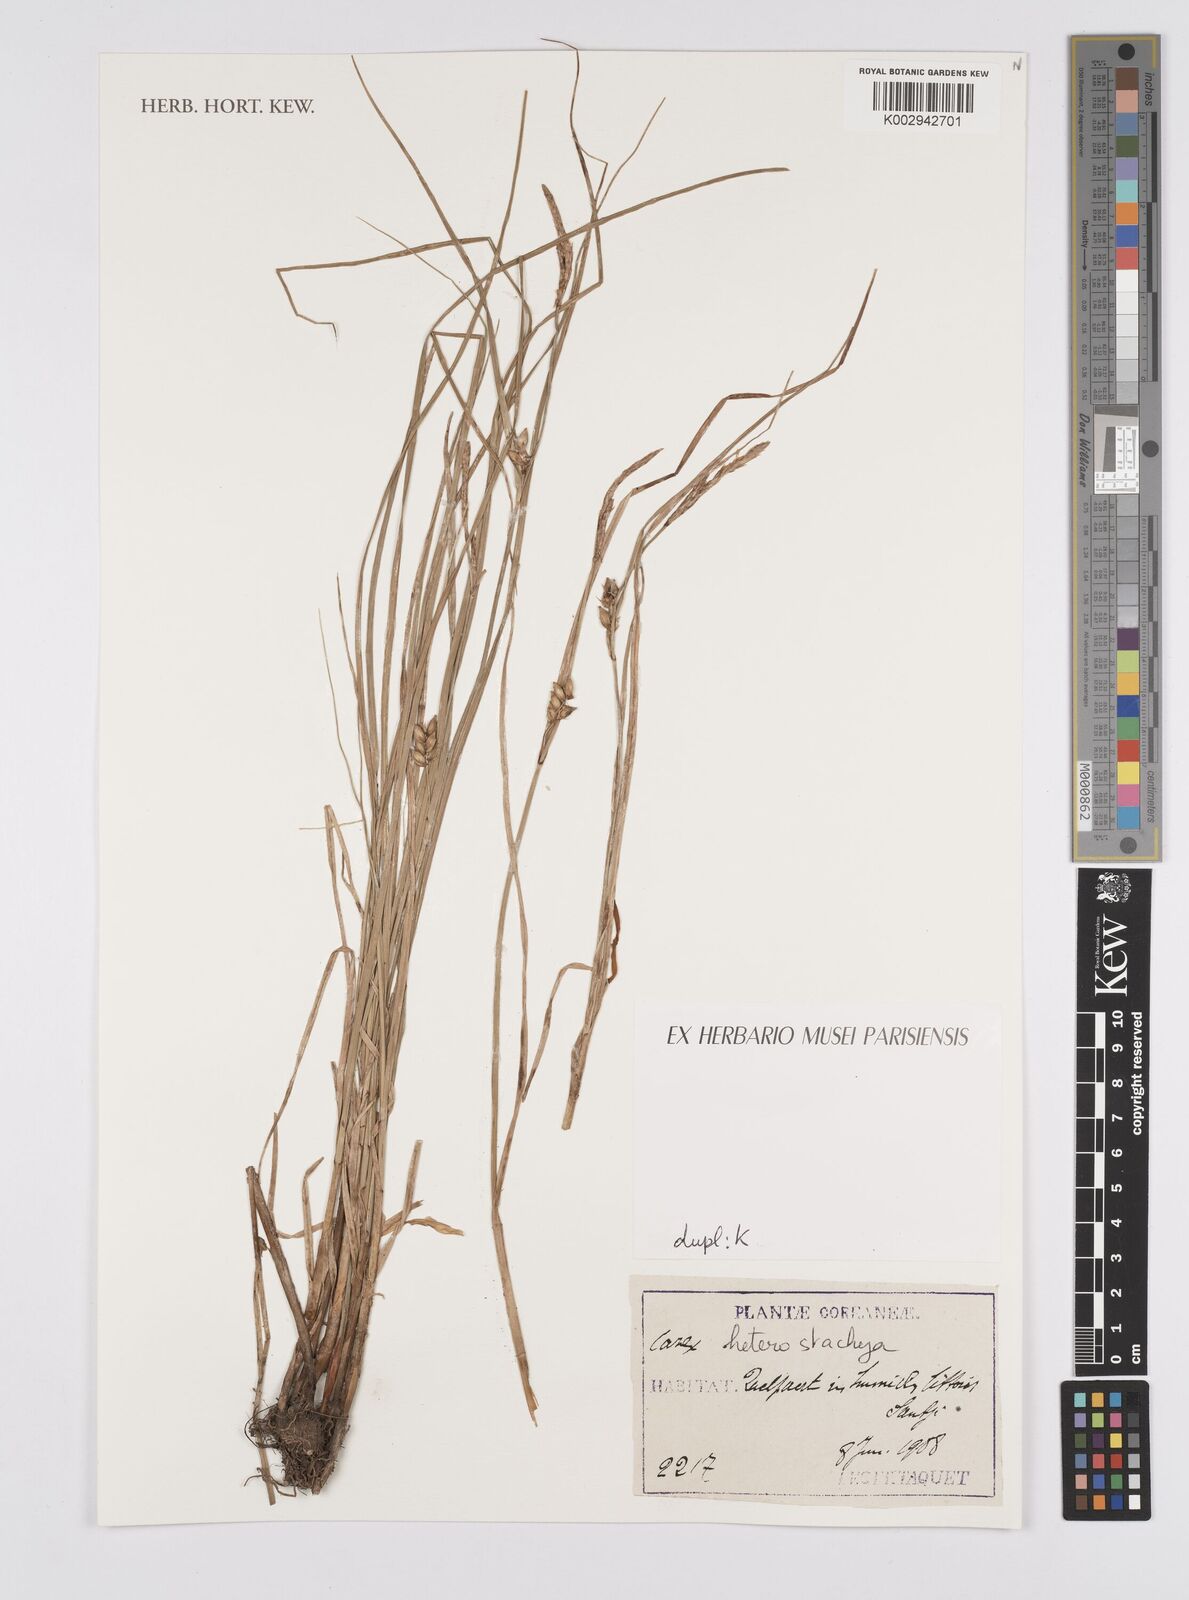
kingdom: Plantae
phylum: Tracheophyta
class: Liliopsida
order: Poales
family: Cyperaceae
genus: Carex
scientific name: Carex heterostachya
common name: Different-spike sedge
